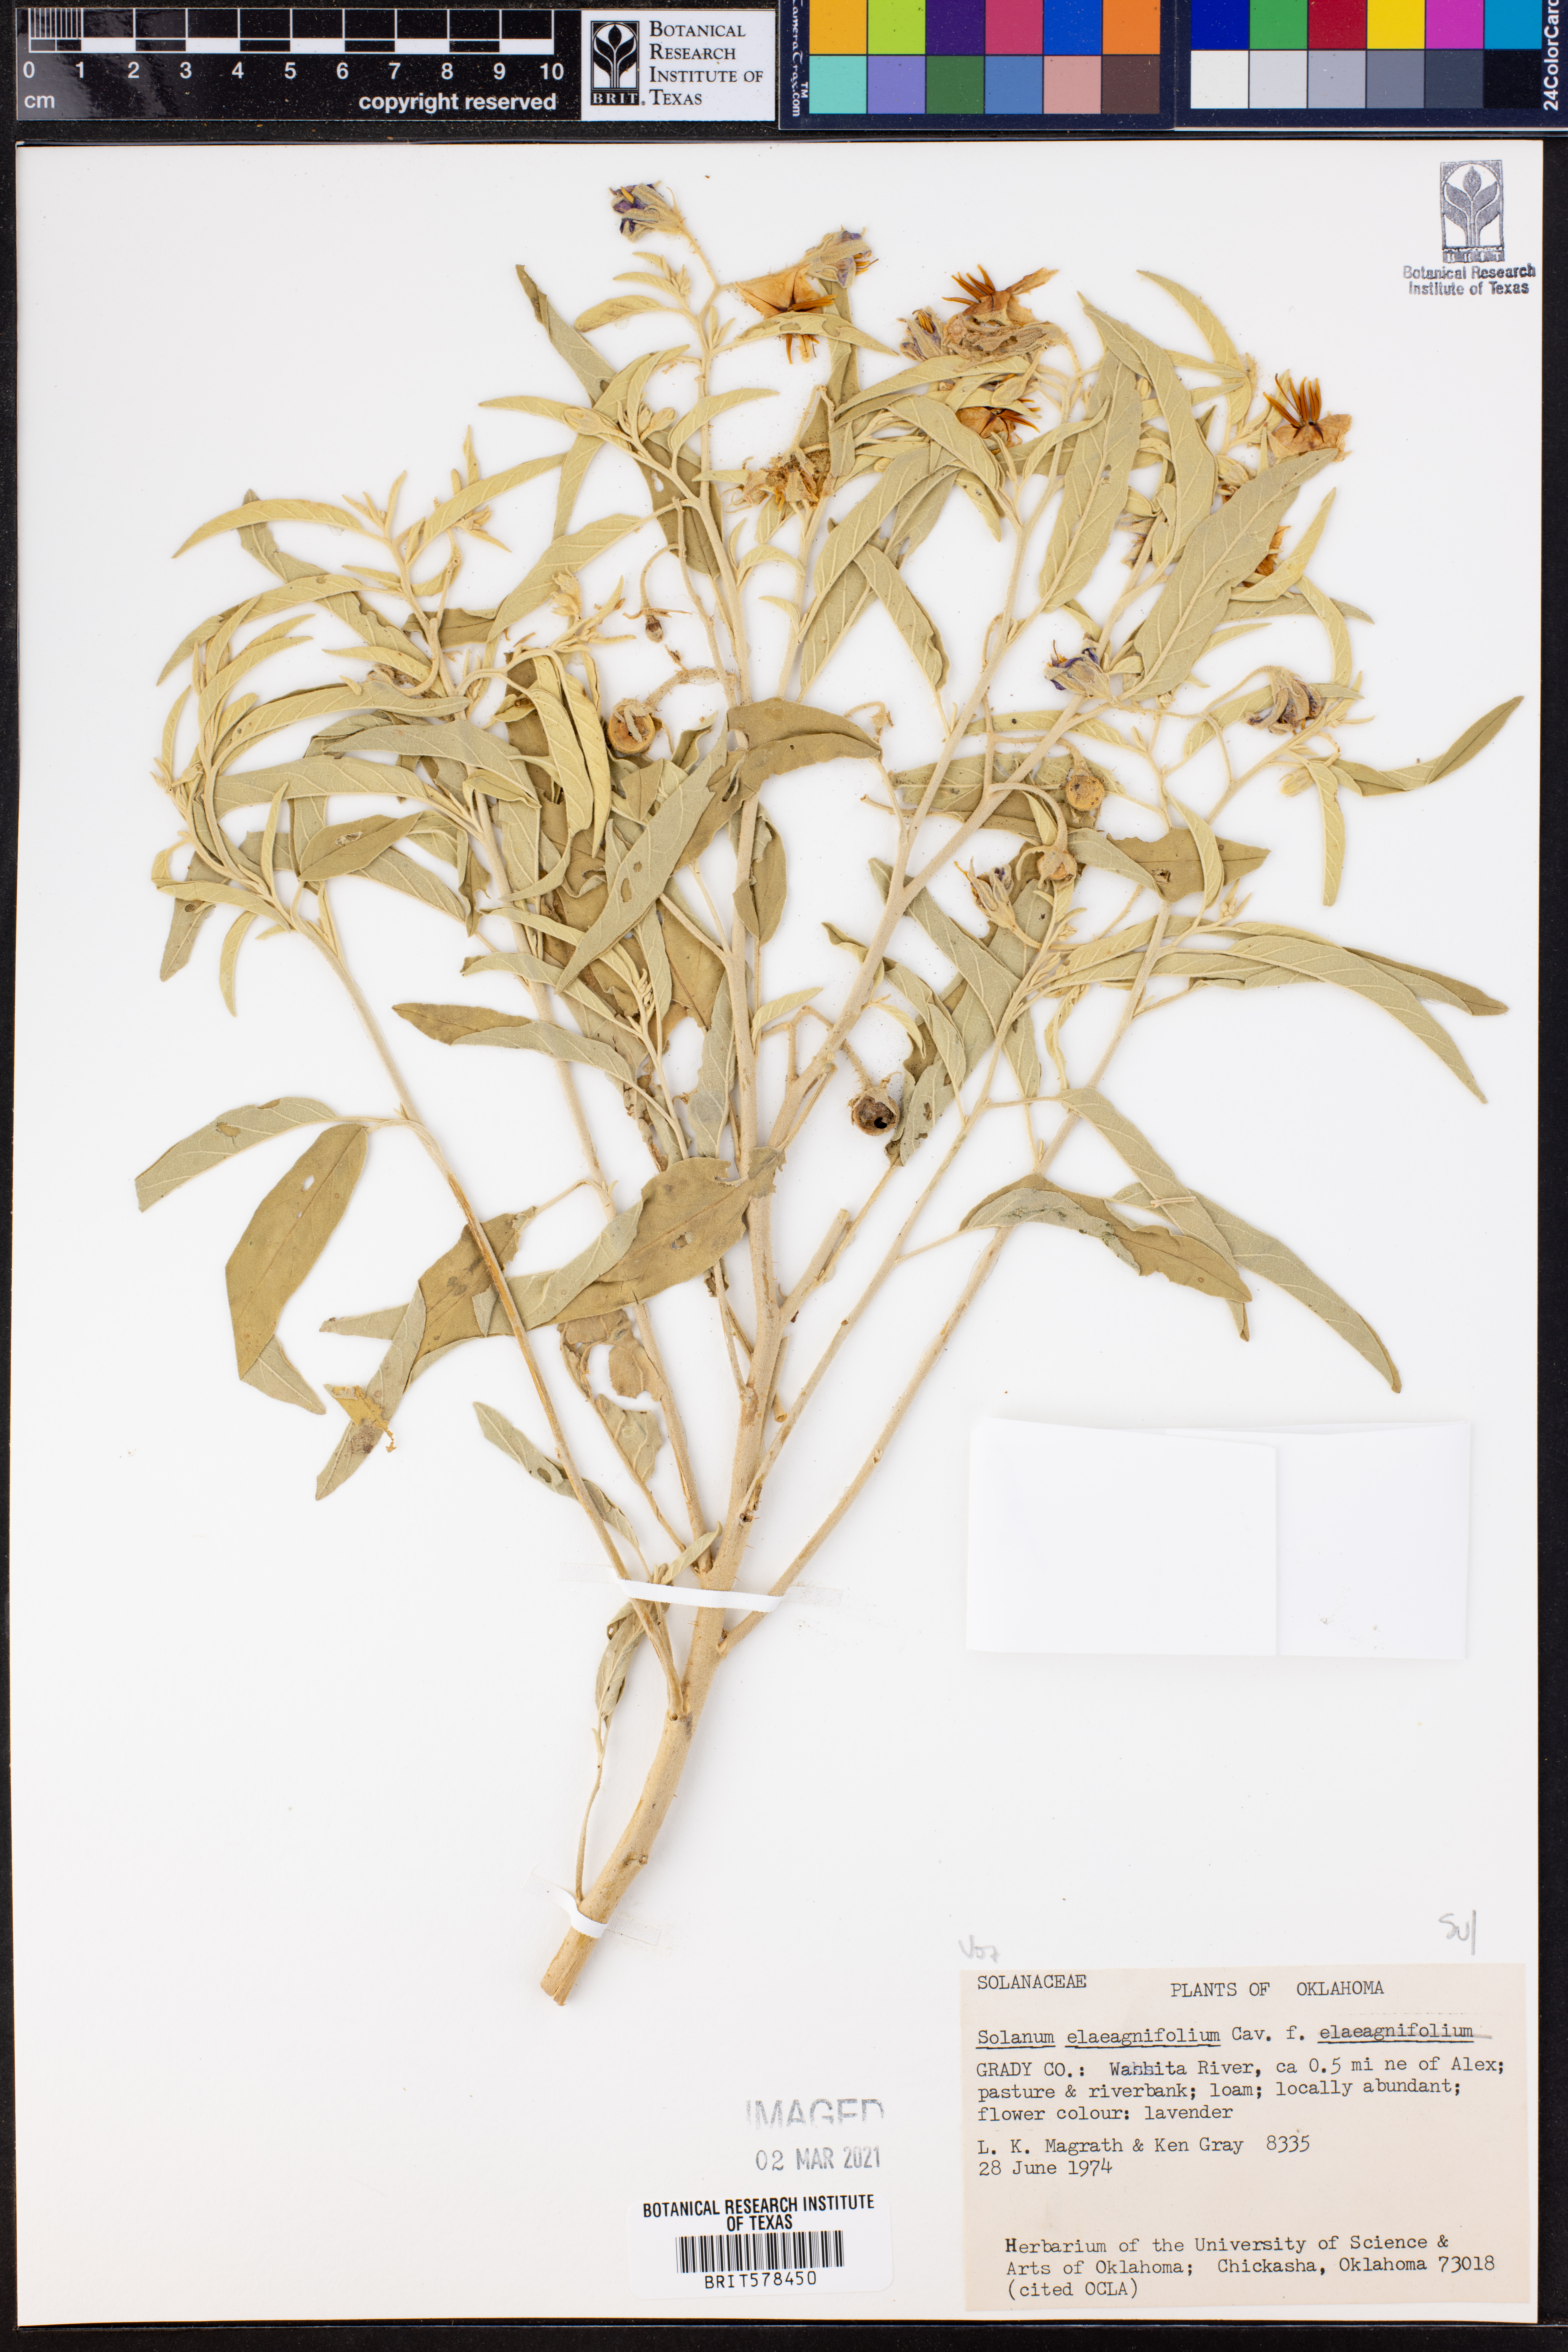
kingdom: Plantae
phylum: Tracheophyta
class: Magnoliopsida
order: Solanales
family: Solanaceae
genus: Solanum
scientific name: Solanum elaeagnifolium
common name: Silverleaf nightshade
